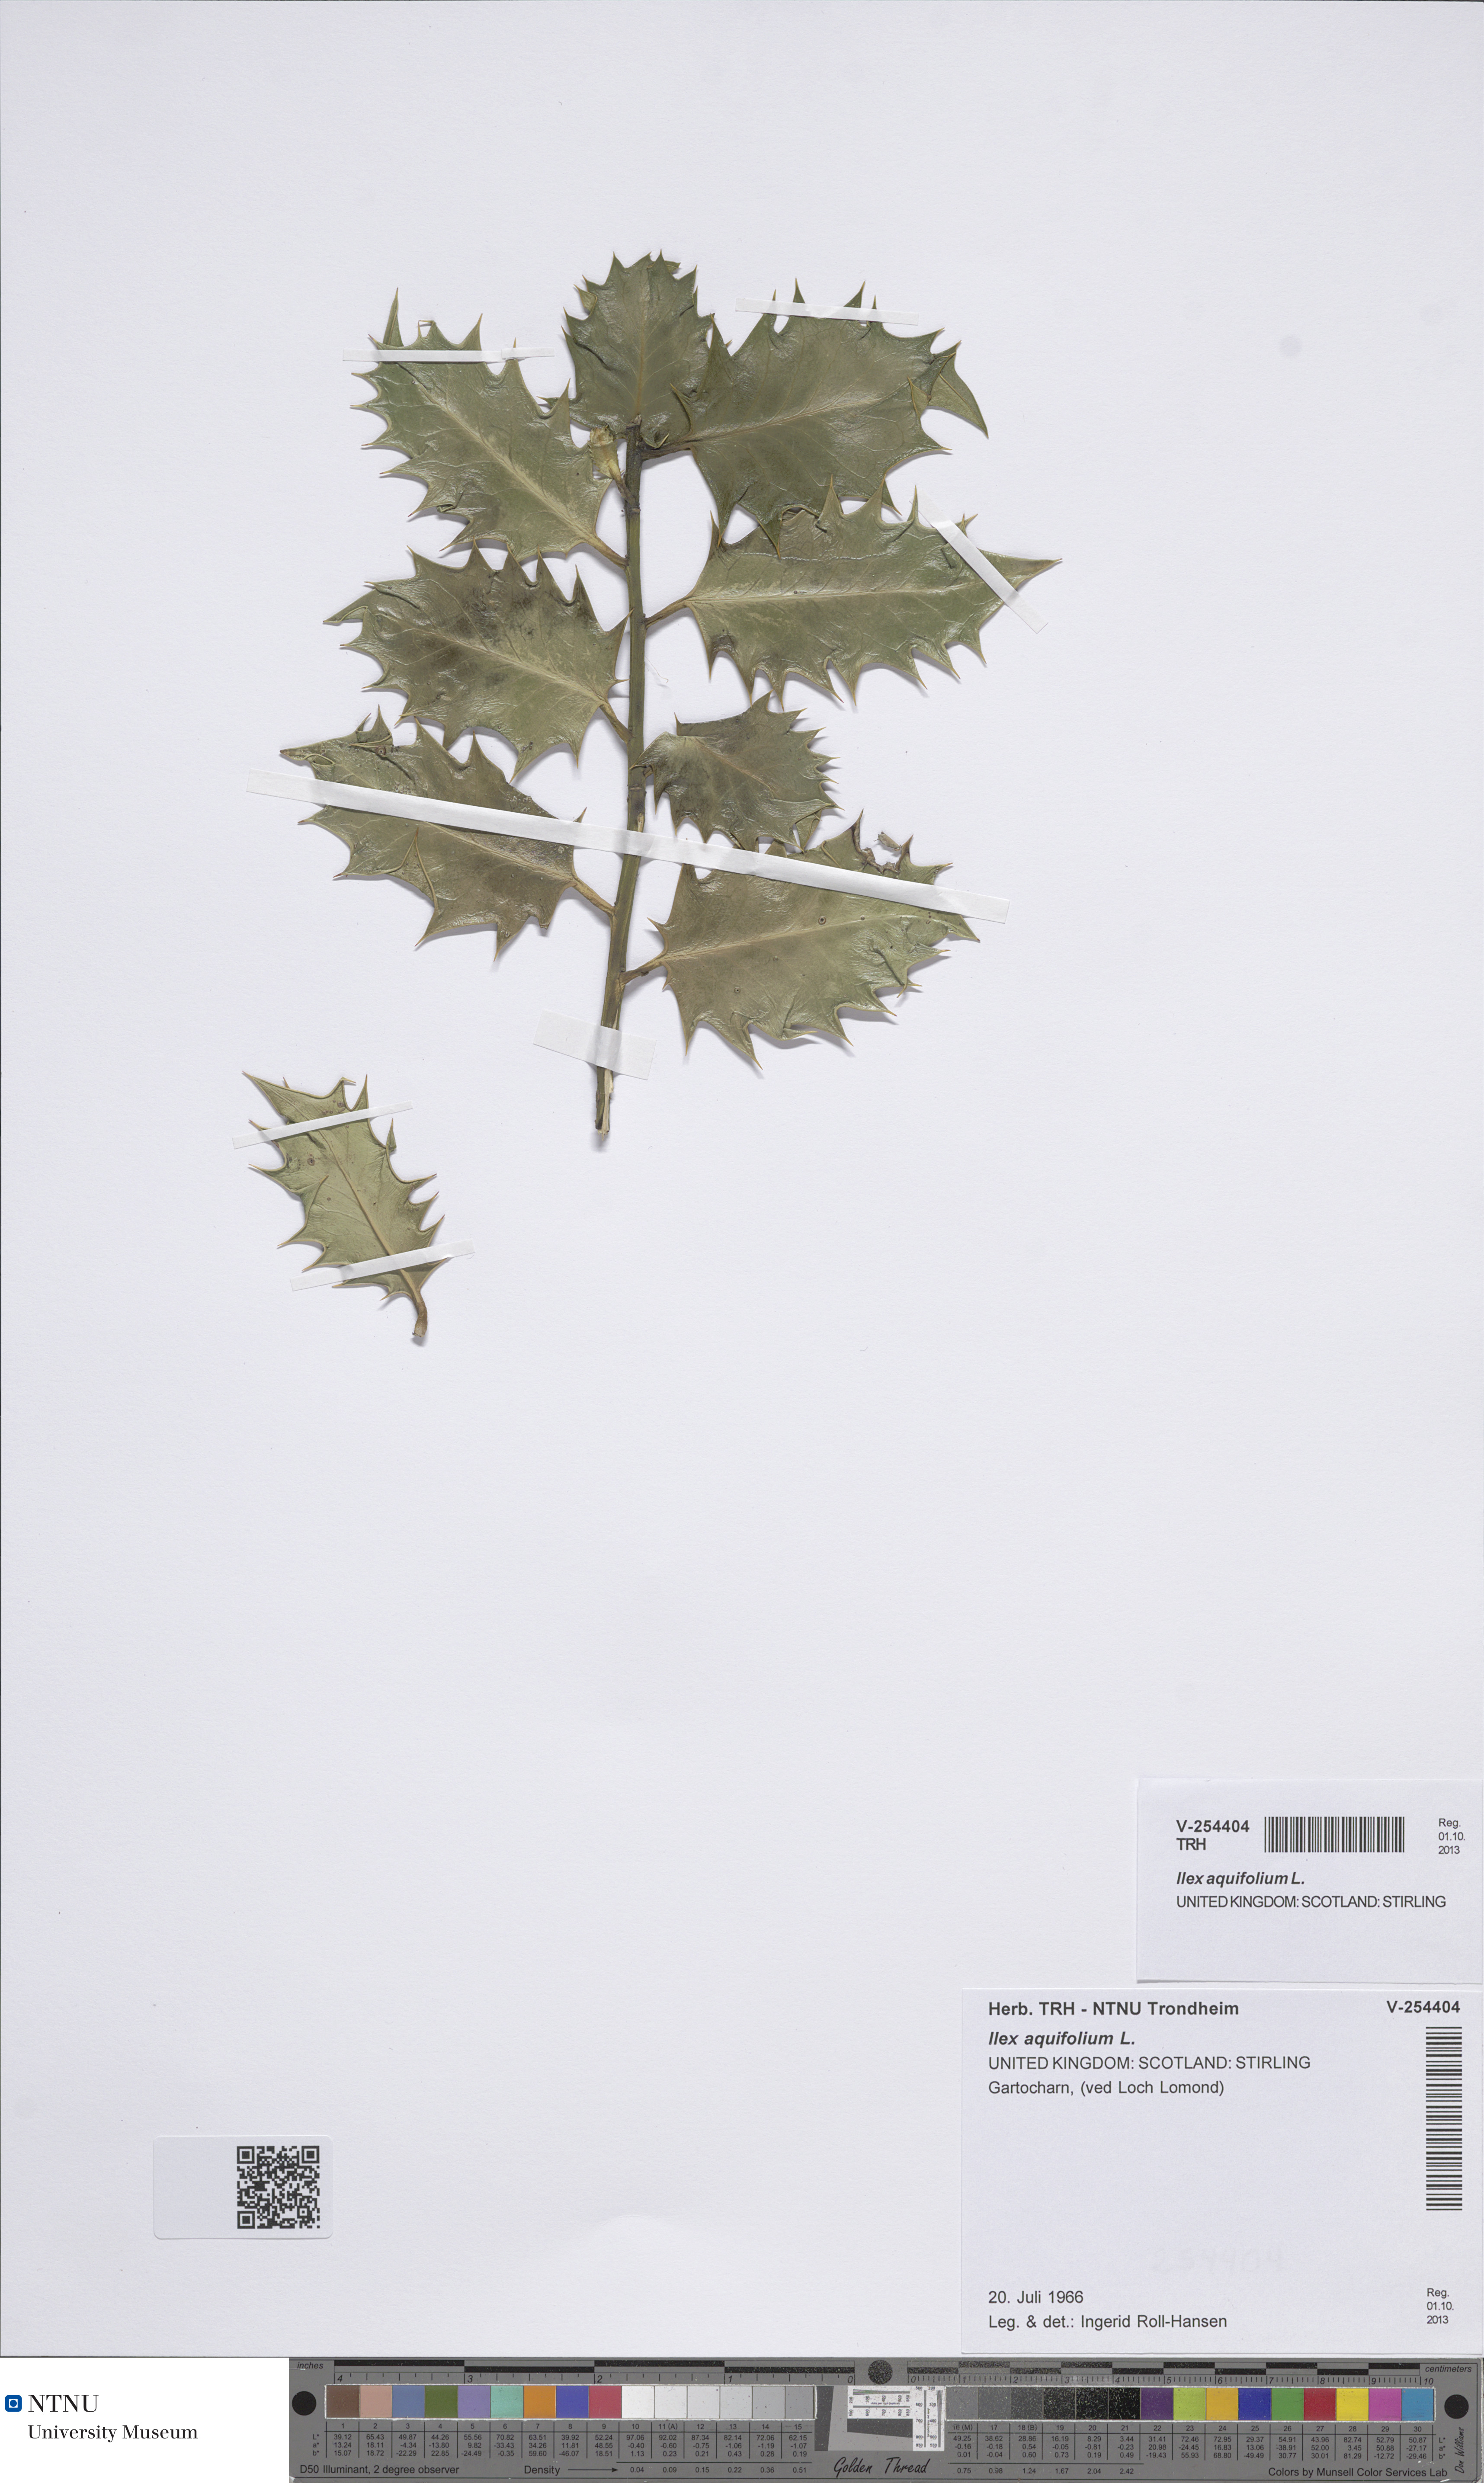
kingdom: Plantae
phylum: Tracheophyta
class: Magnoliopsida
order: Aquifoliales
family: Aquifoliaceae
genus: Ilex
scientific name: Ilex aquifolium
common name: English holly
